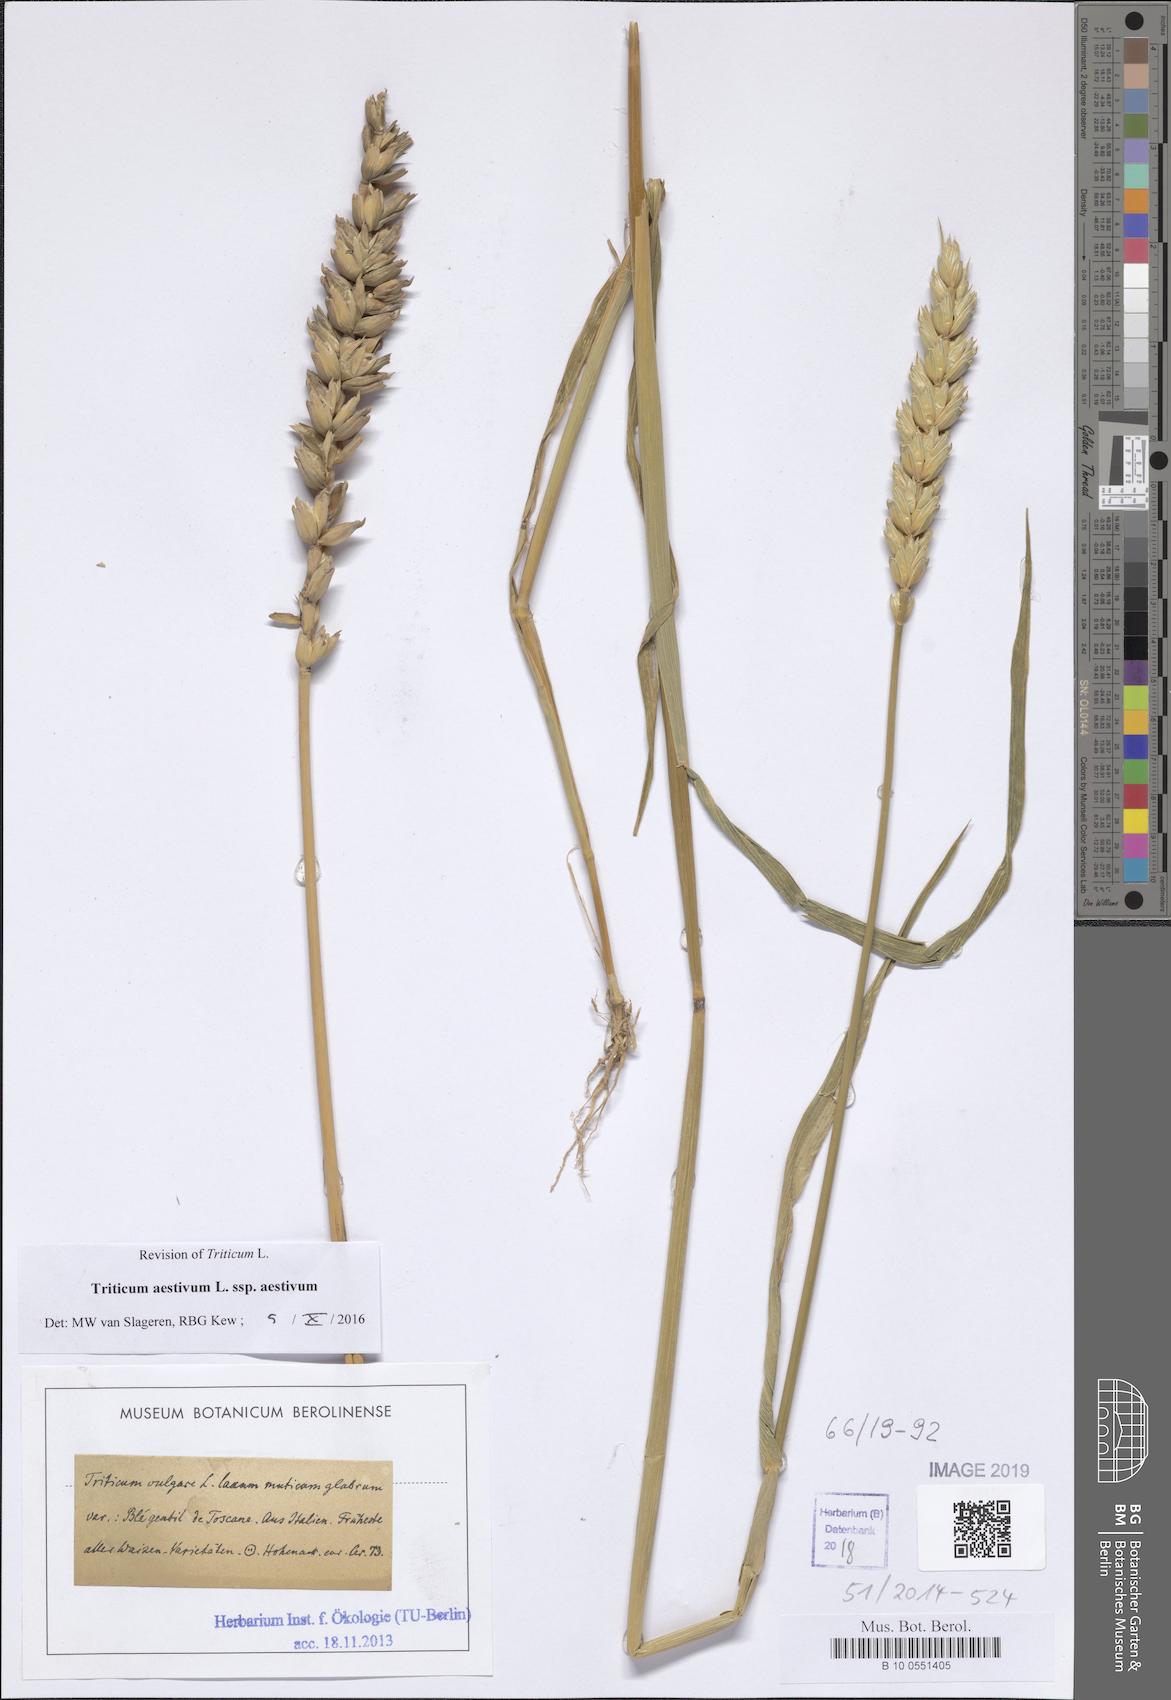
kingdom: Plantae
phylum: Tracheophyta
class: Liliopsida
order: Poales
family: Poaceae
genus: Triticum
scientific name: Triticum aestivum
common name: Common wheat
